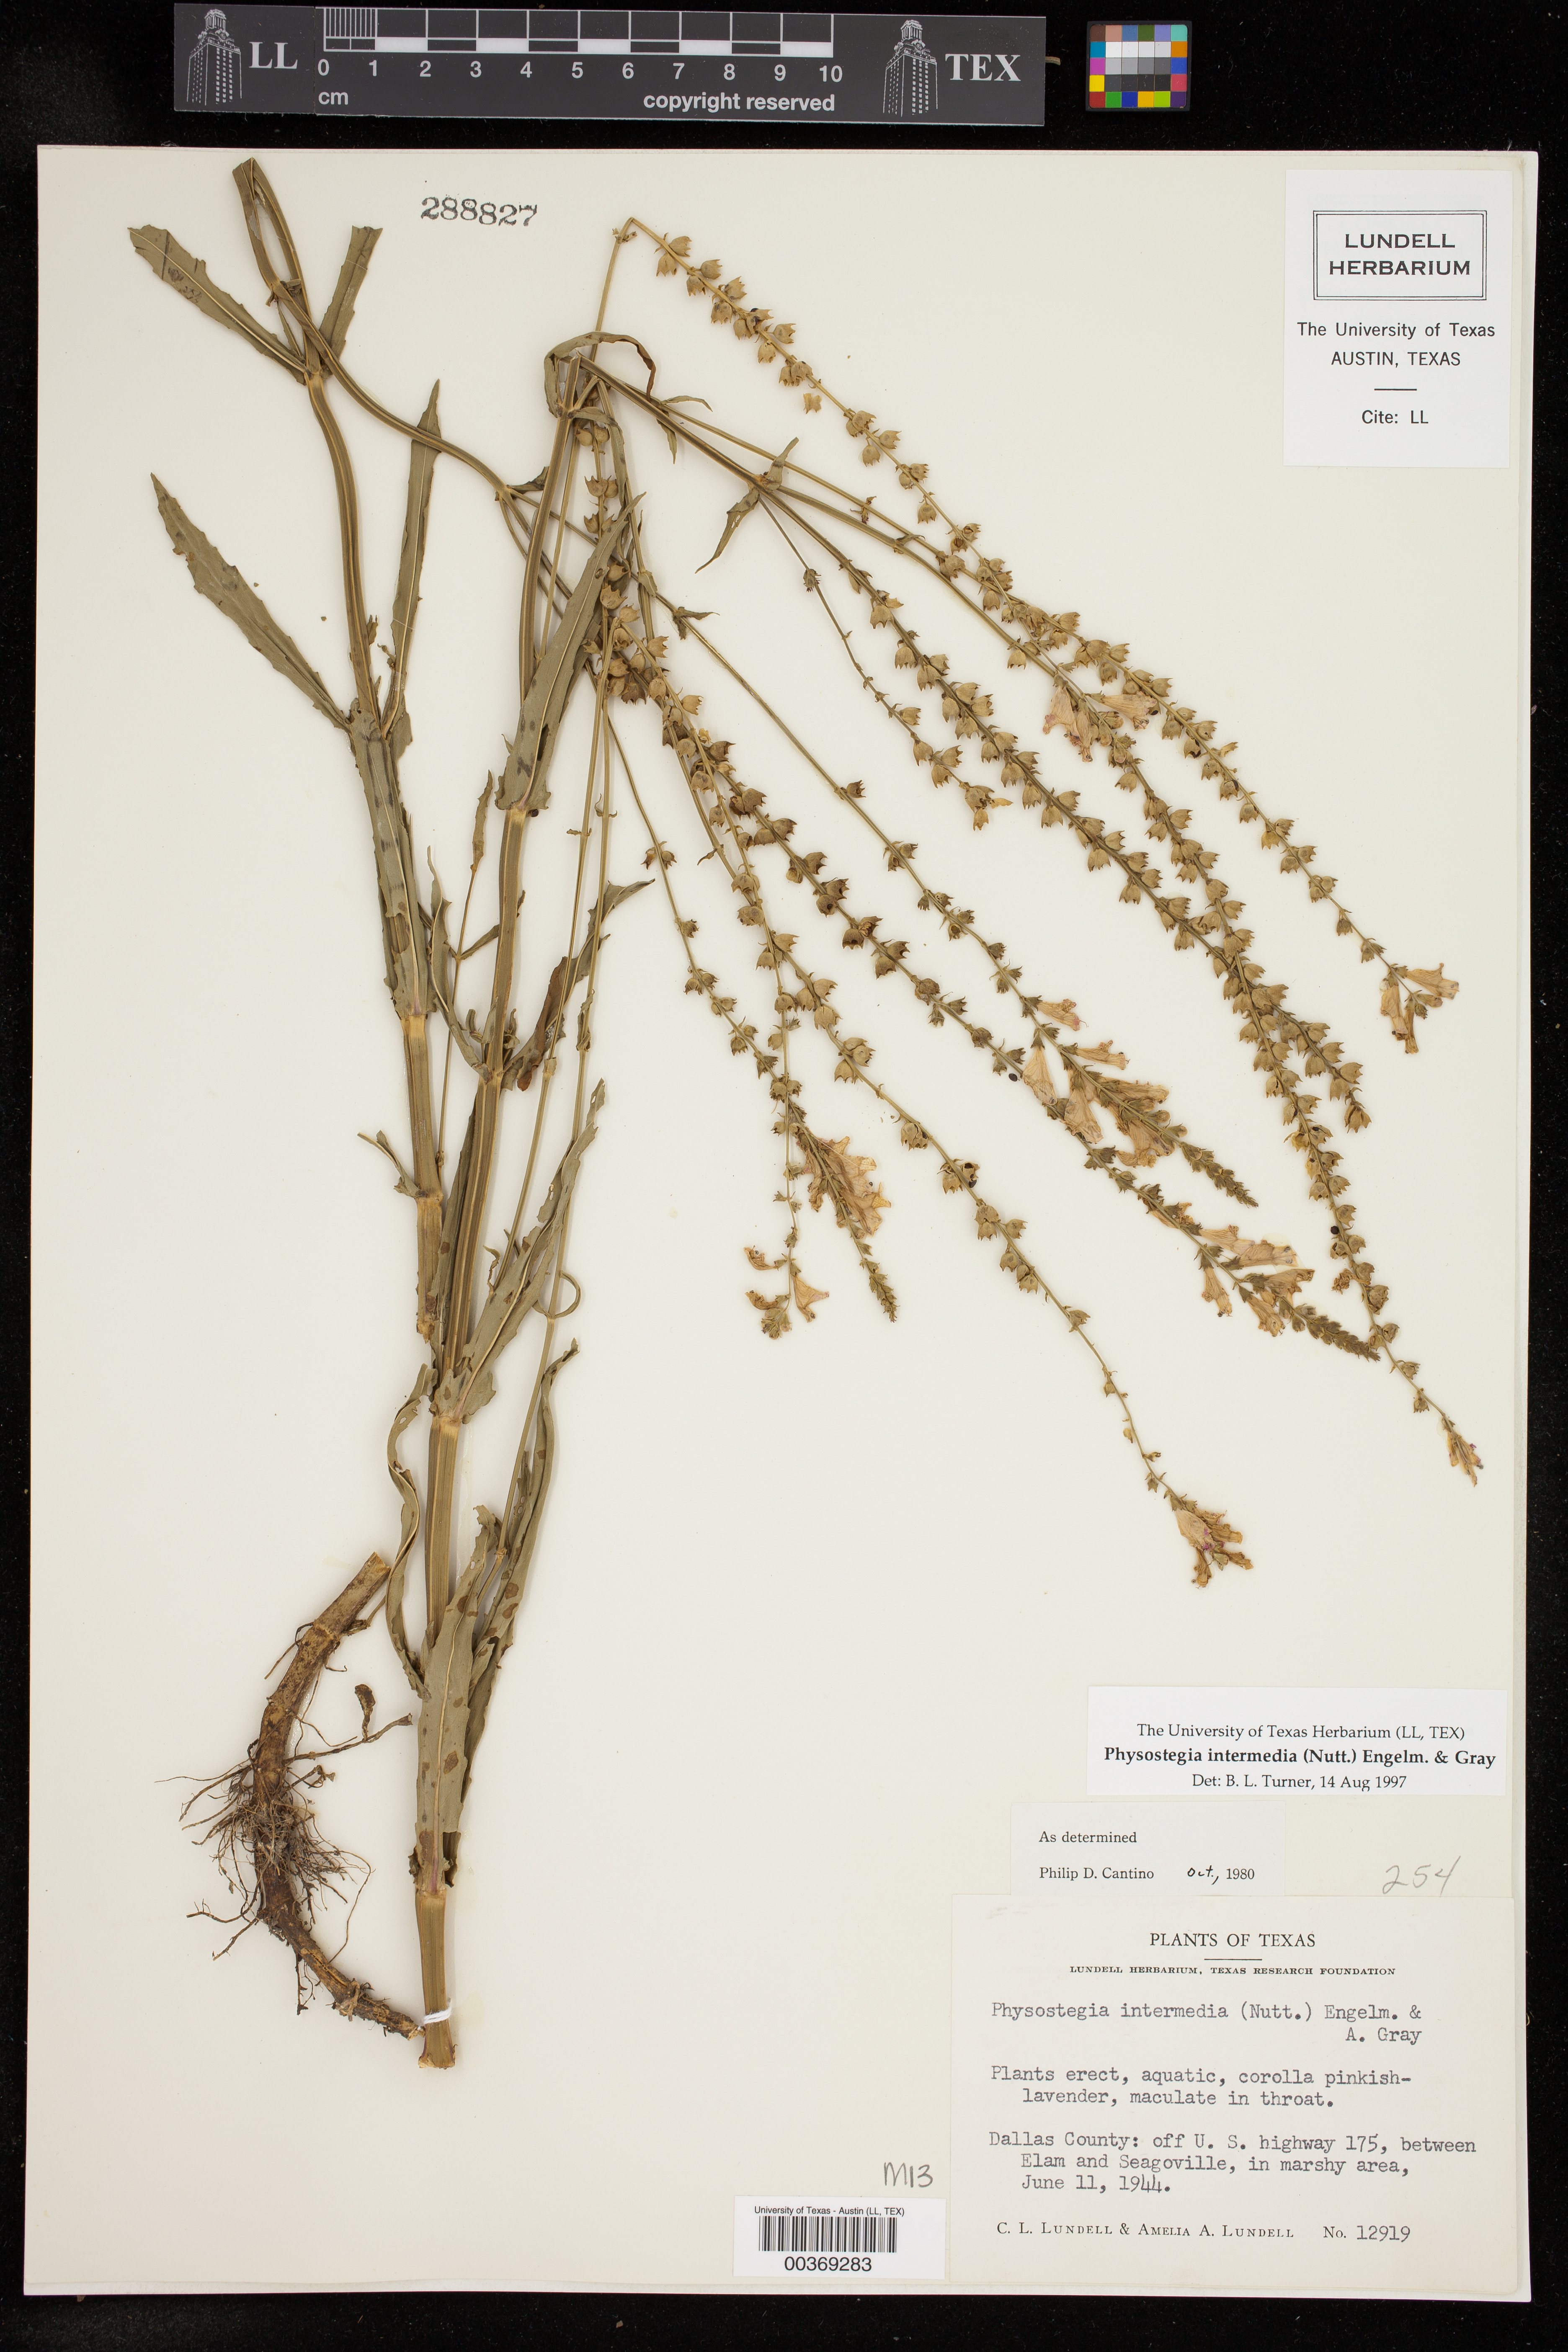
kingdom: Plantae
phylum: Tracheophyta
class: Magnoliopsida
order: Lamiales
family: Lamiaceae
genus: Physostegia
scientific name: Physostegia intermedia
